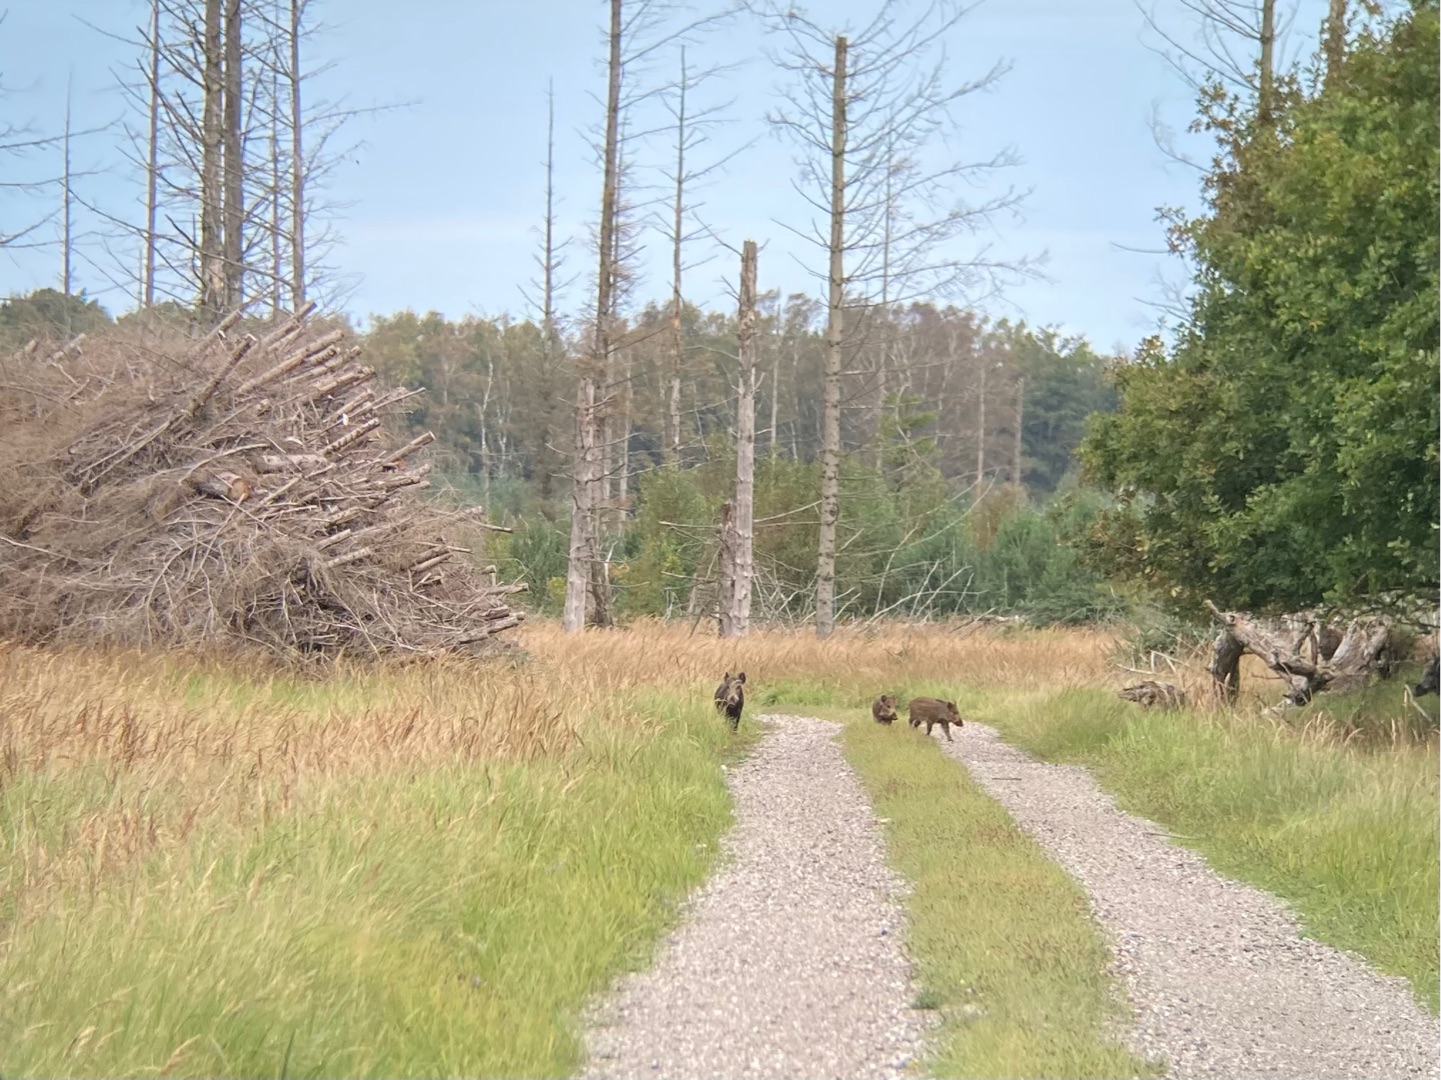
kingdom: Animalia
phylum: Chordata
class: Mammalia
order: Artiodactyla
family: Suidae
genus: Sus
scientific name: Sus scrofa
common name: Vildsvin
